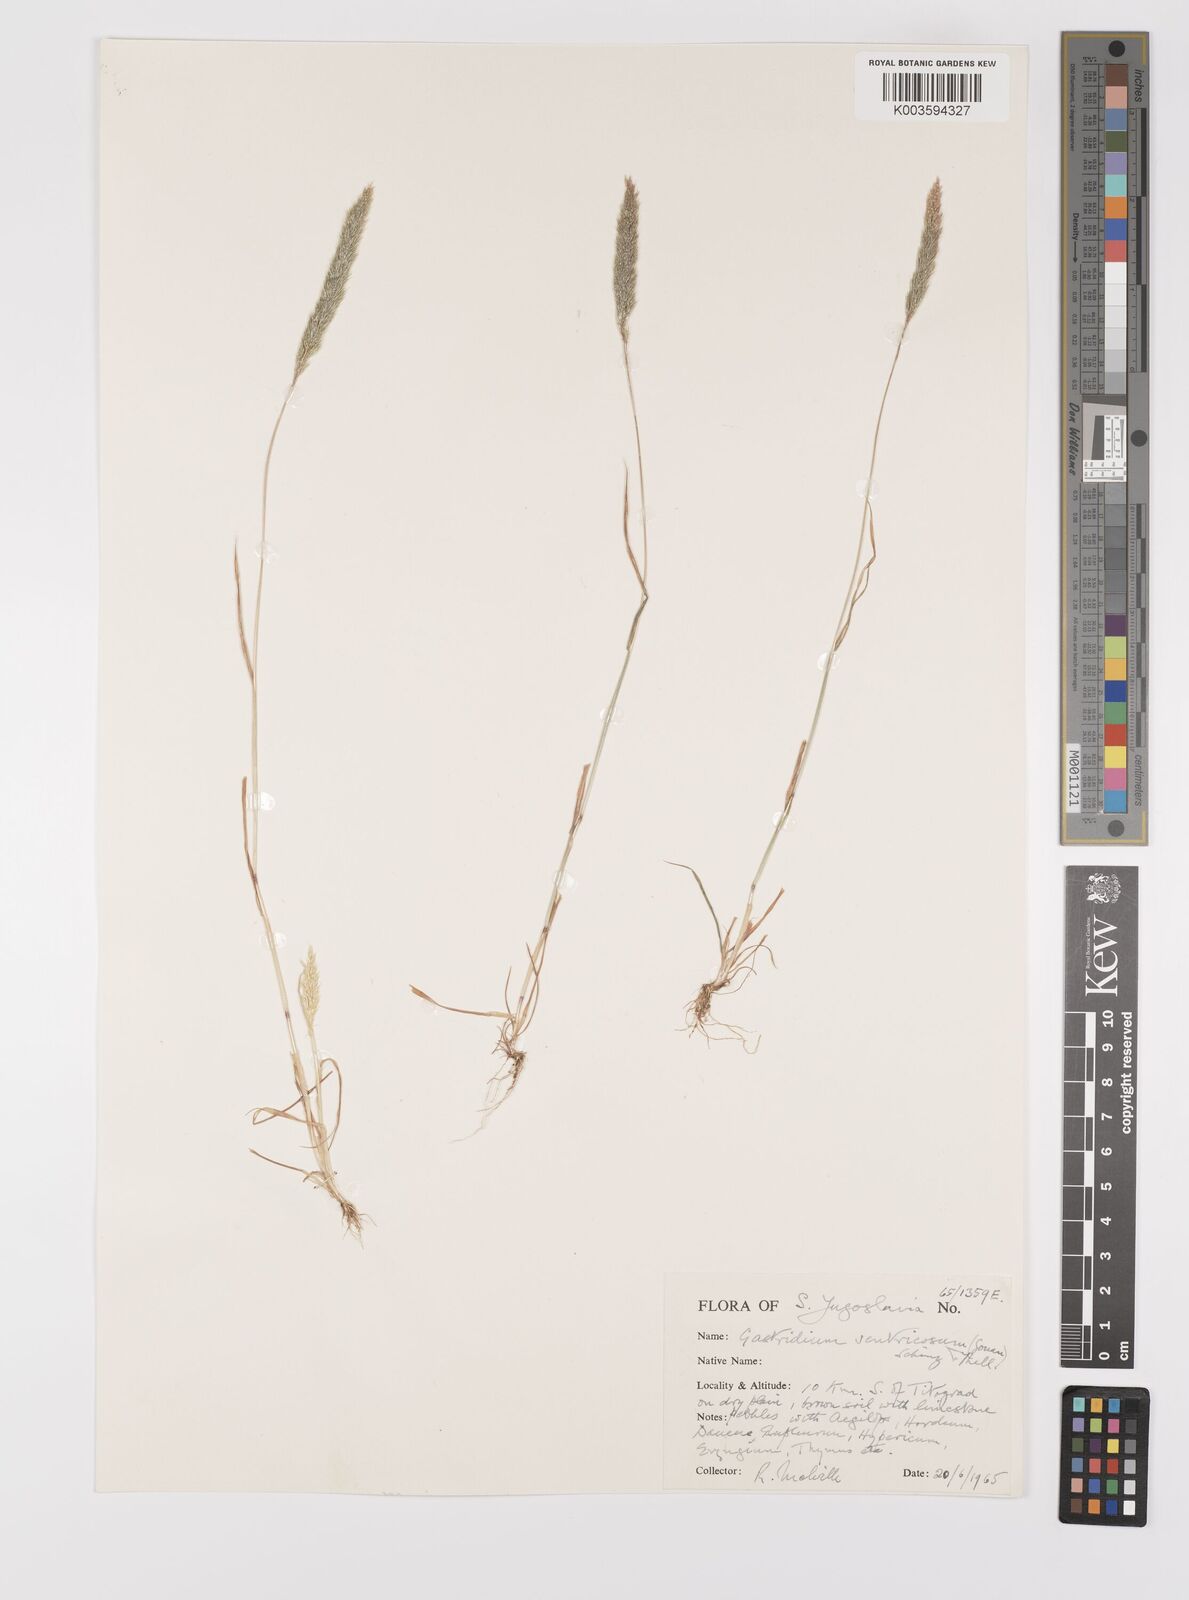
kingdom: Plantae
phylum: Tracheophyta
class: Liliopsida
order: Poales
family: Poaceae
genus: Gastridium
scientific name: Gastridium ventricosum
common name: Nit-grass
